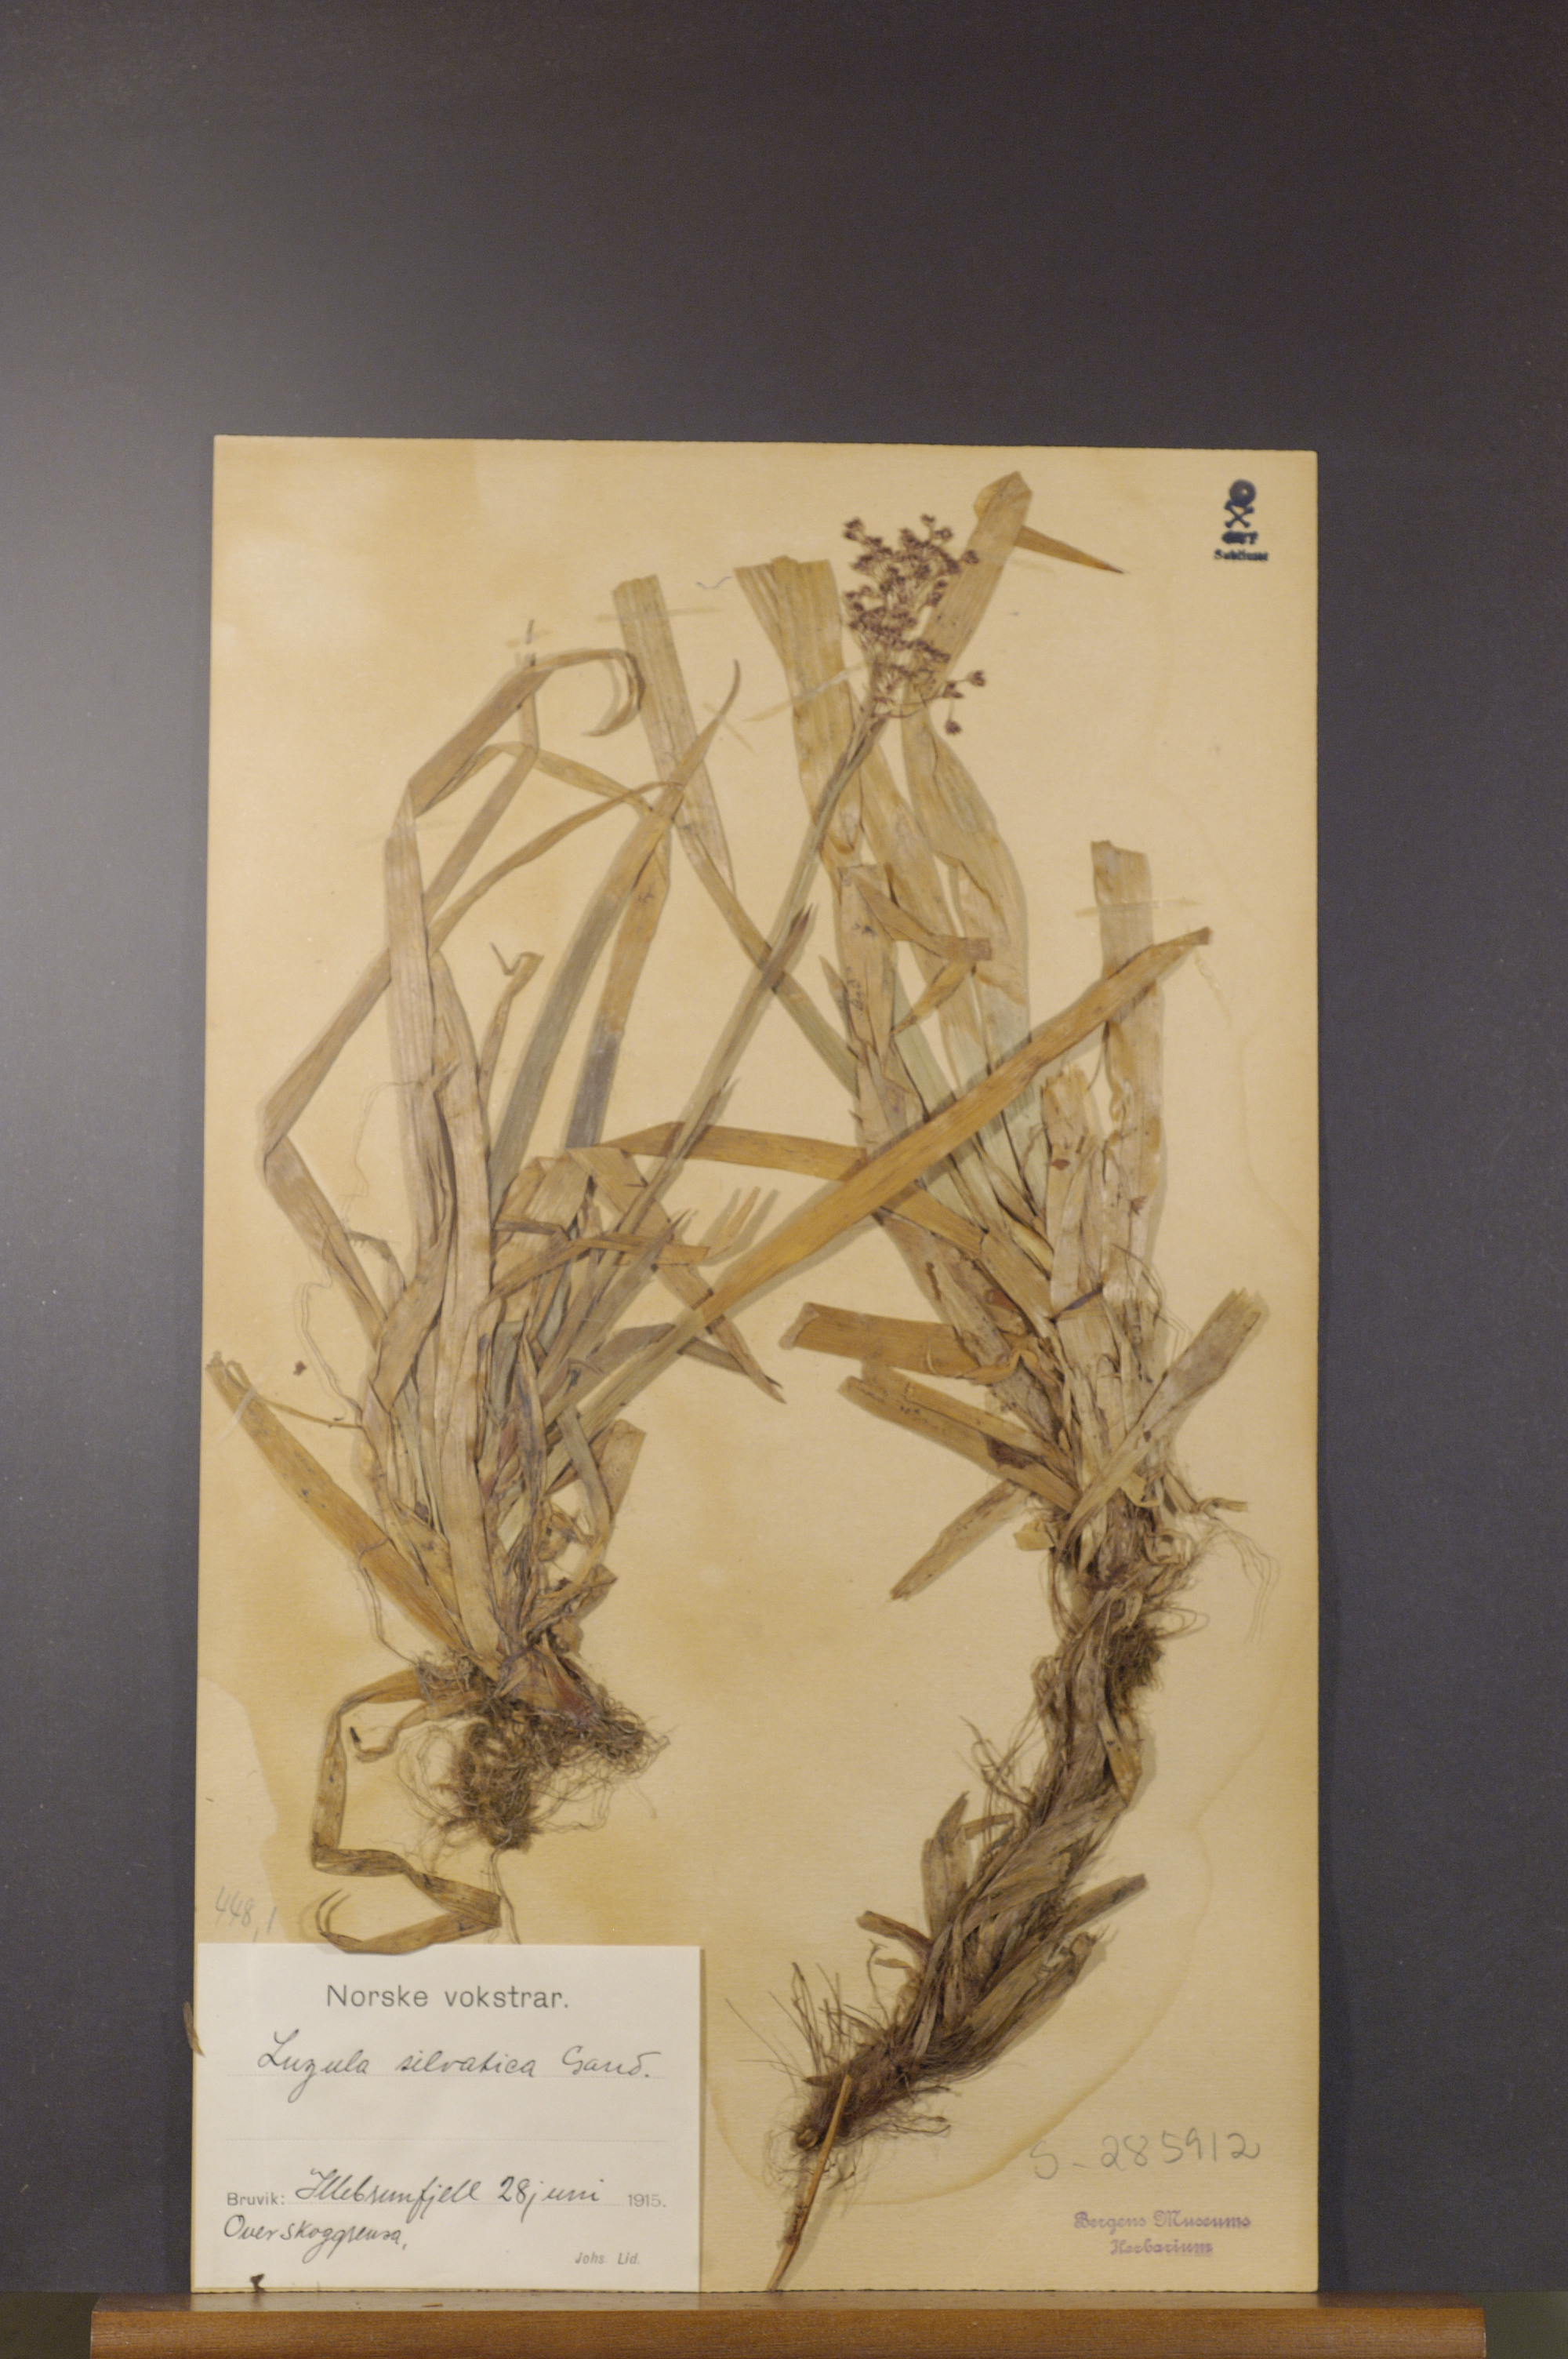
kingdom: Plantae
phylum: Tracheophyta
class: Liliopsida
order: Poales
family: Juncaceae
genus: Luzula
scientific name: Luzula sylvatica
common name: Great wood-rush
